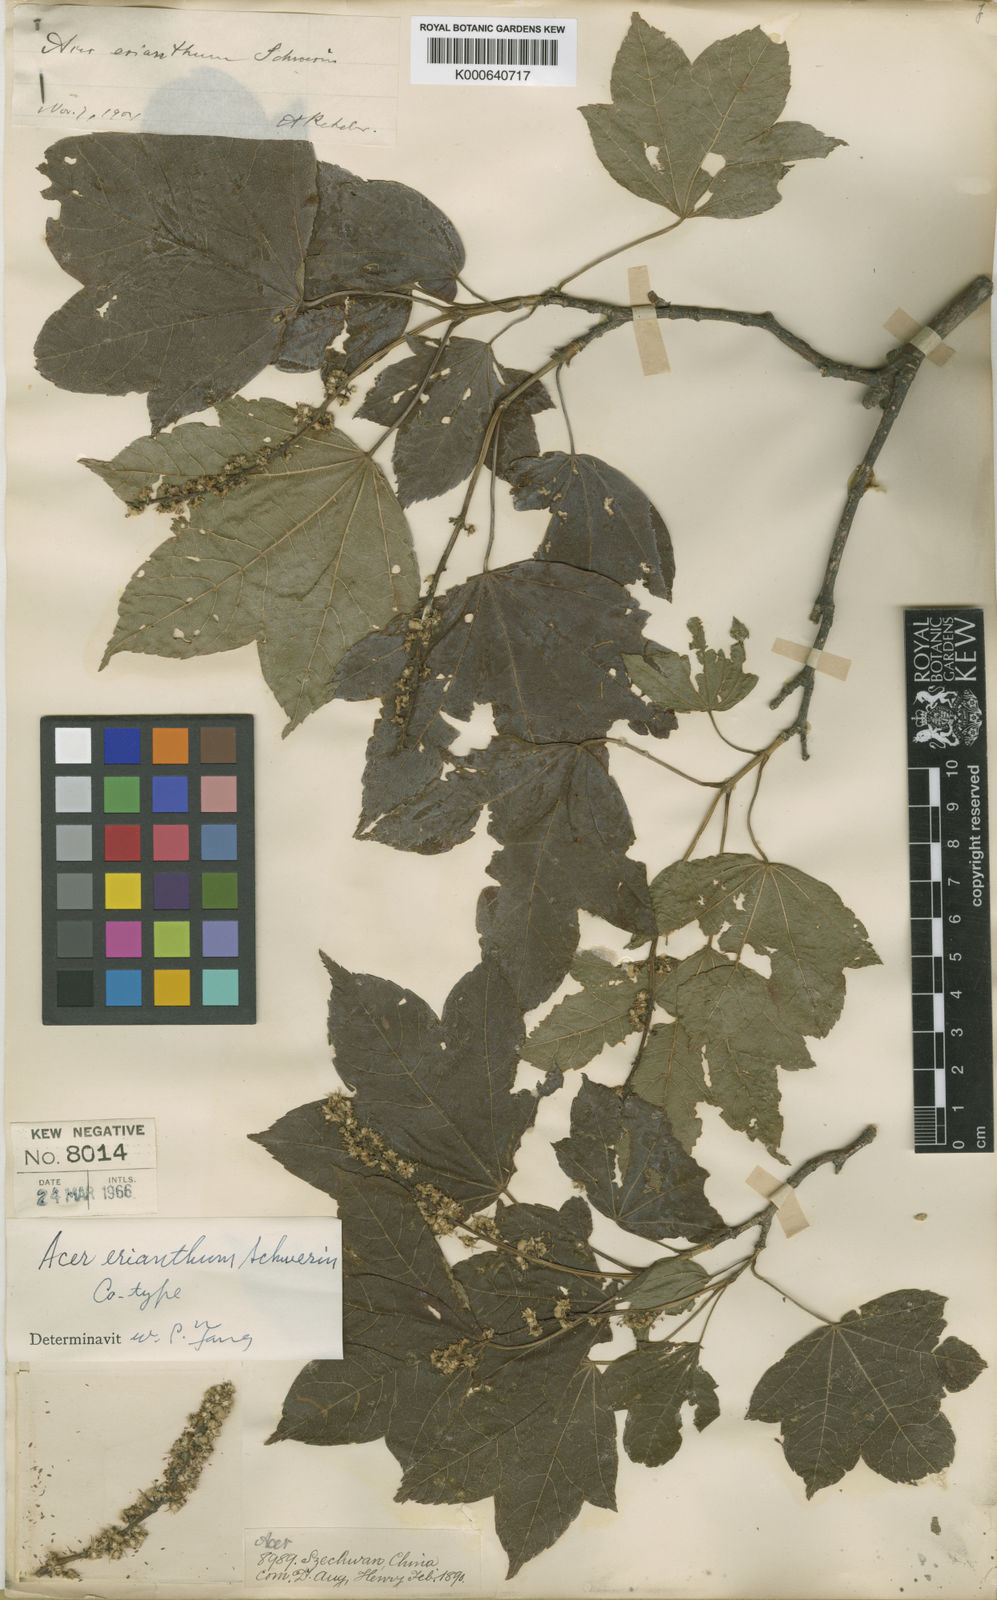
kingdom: Plantae
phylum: Tracheophyta
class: Magnoliopsida
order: Sapindales
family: Sapindaceae
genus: Acer
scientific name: Acer erianthum
